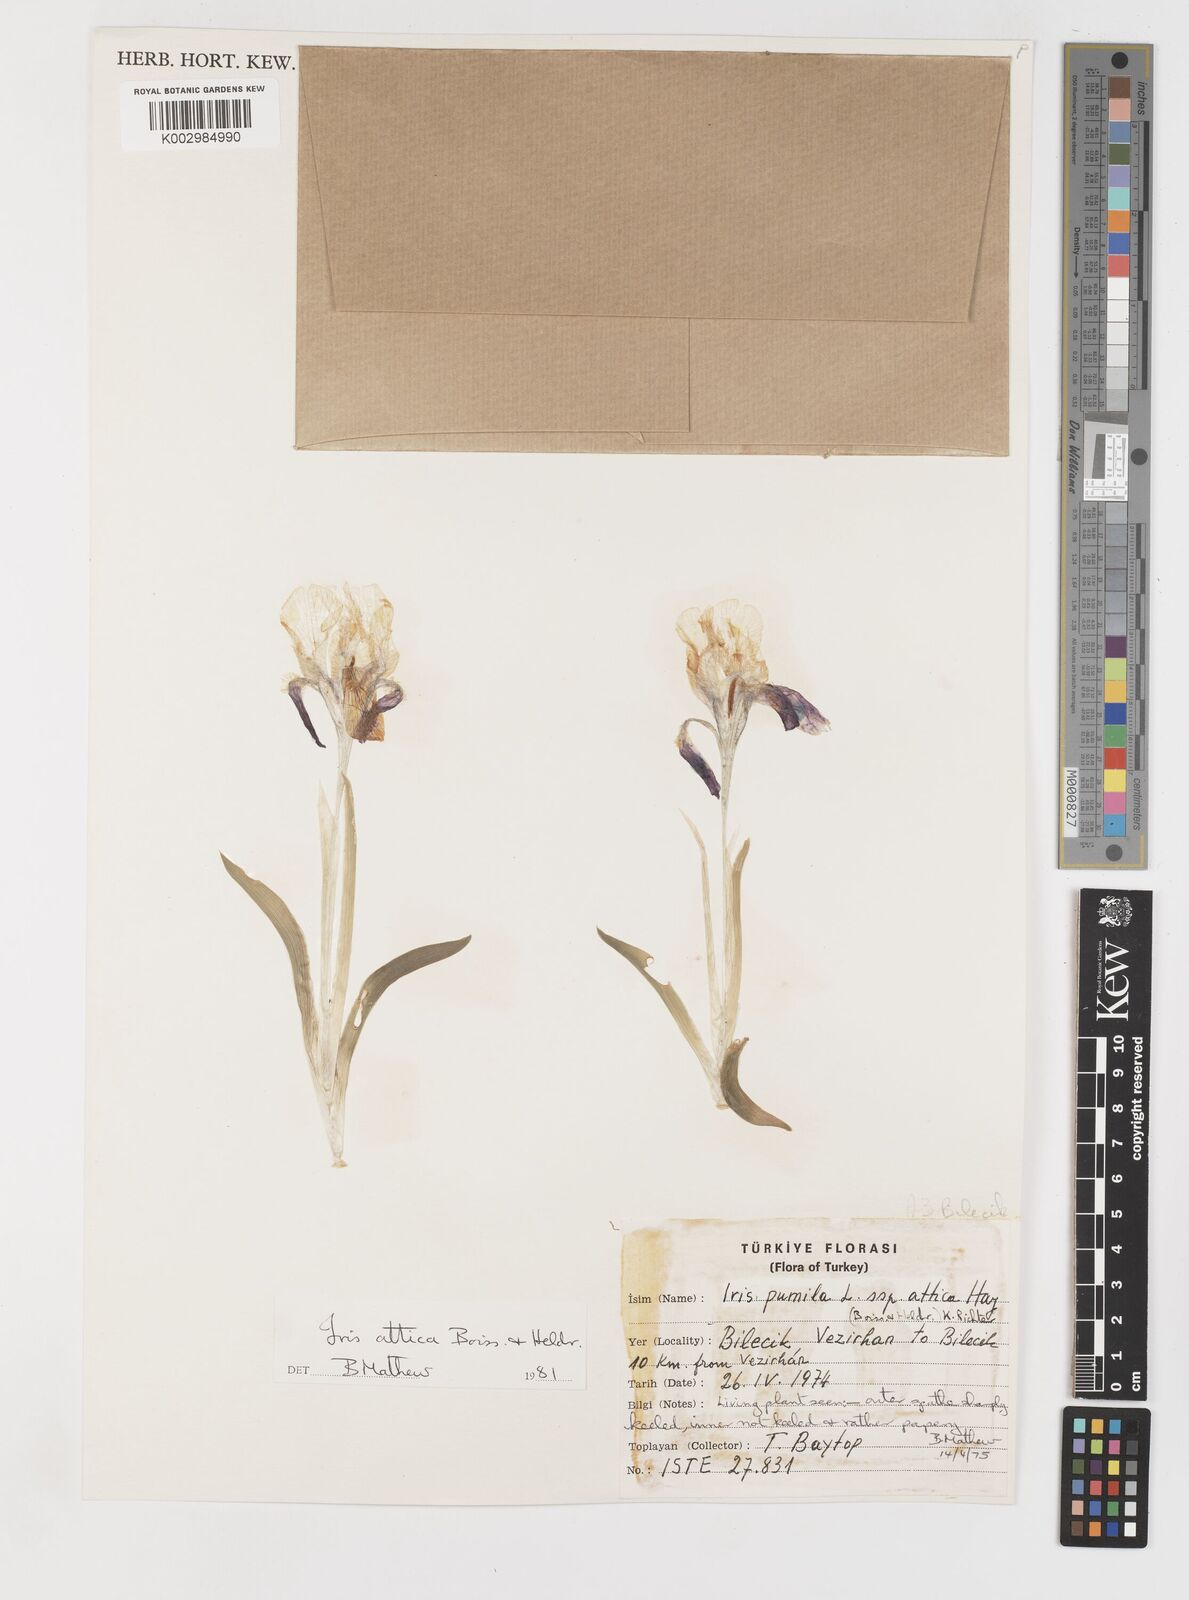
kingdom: Plantae
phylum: Tracheophyta
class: Liliopsida
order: Asparagales
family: Iridaceae
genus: Iris
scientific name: Iris pumila
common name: Dwarf iris
